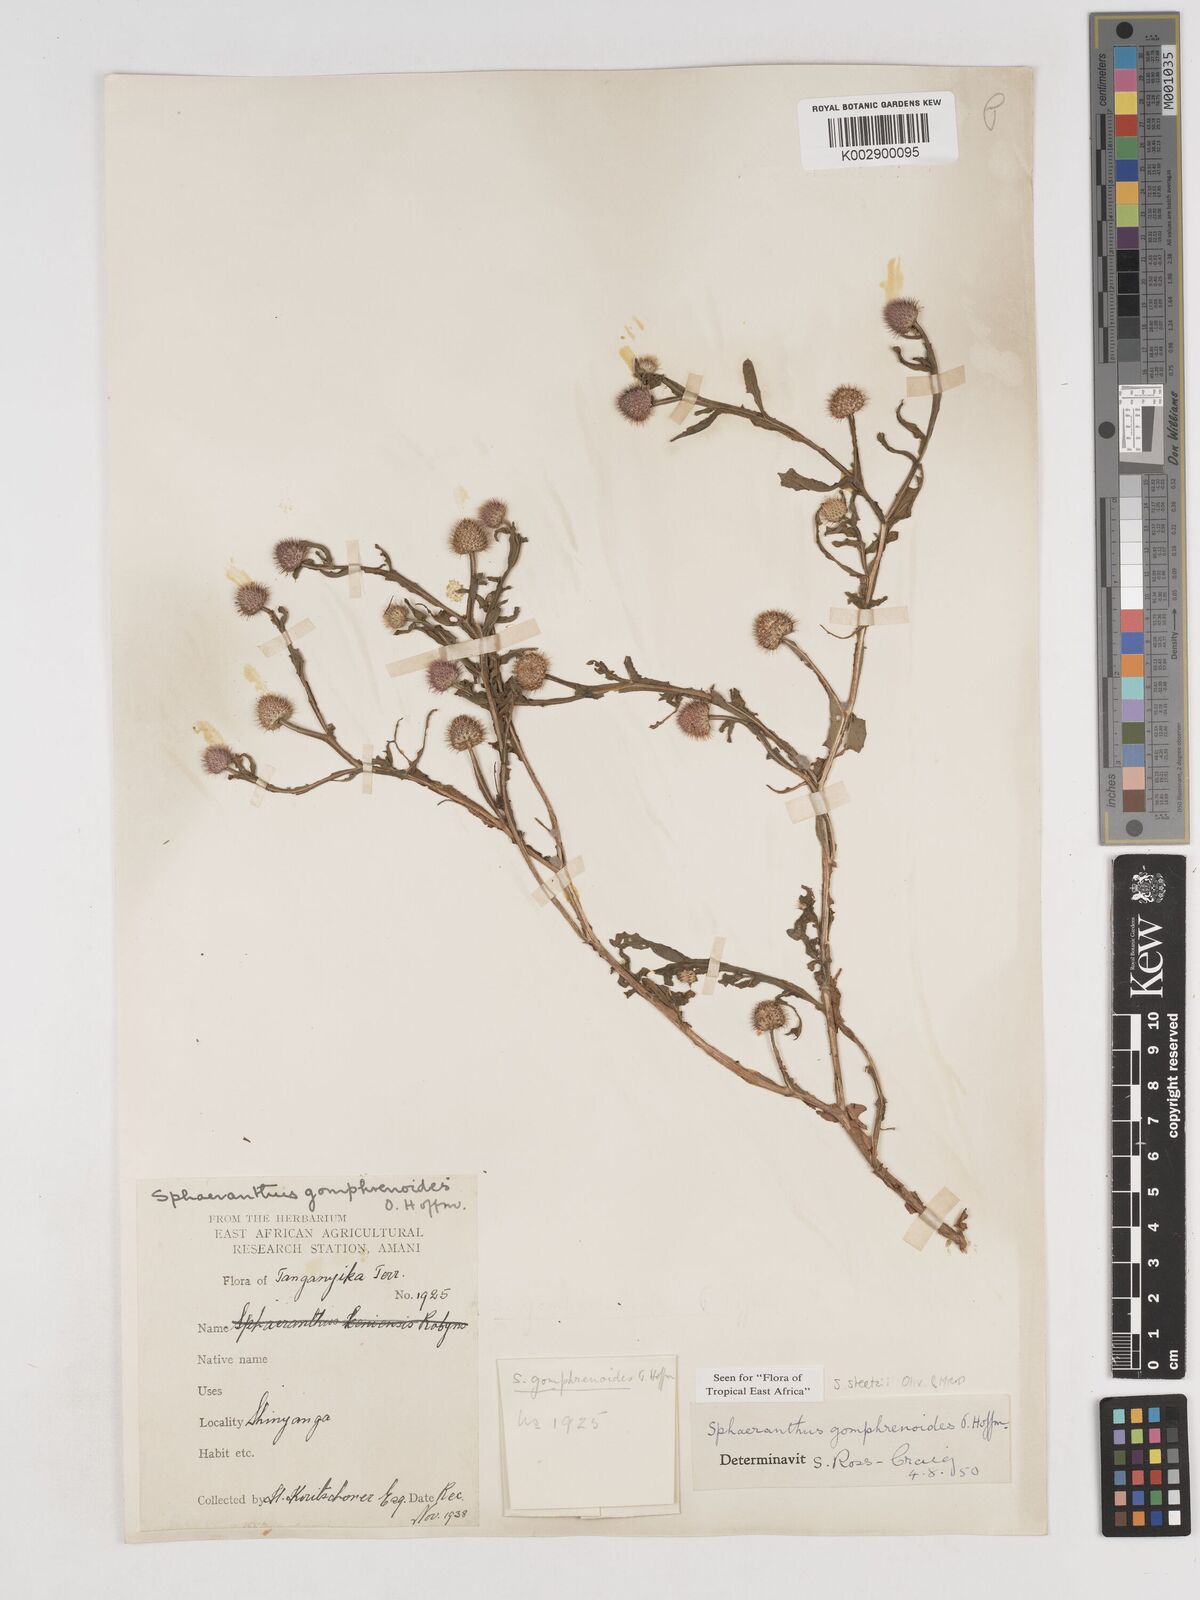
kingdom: Plantae
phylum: Tracheophyta
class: Magnoliopsida
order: Asterales
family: Asteraceae
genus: Sphaeranthus
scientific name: Sphaeranthus steetzii
